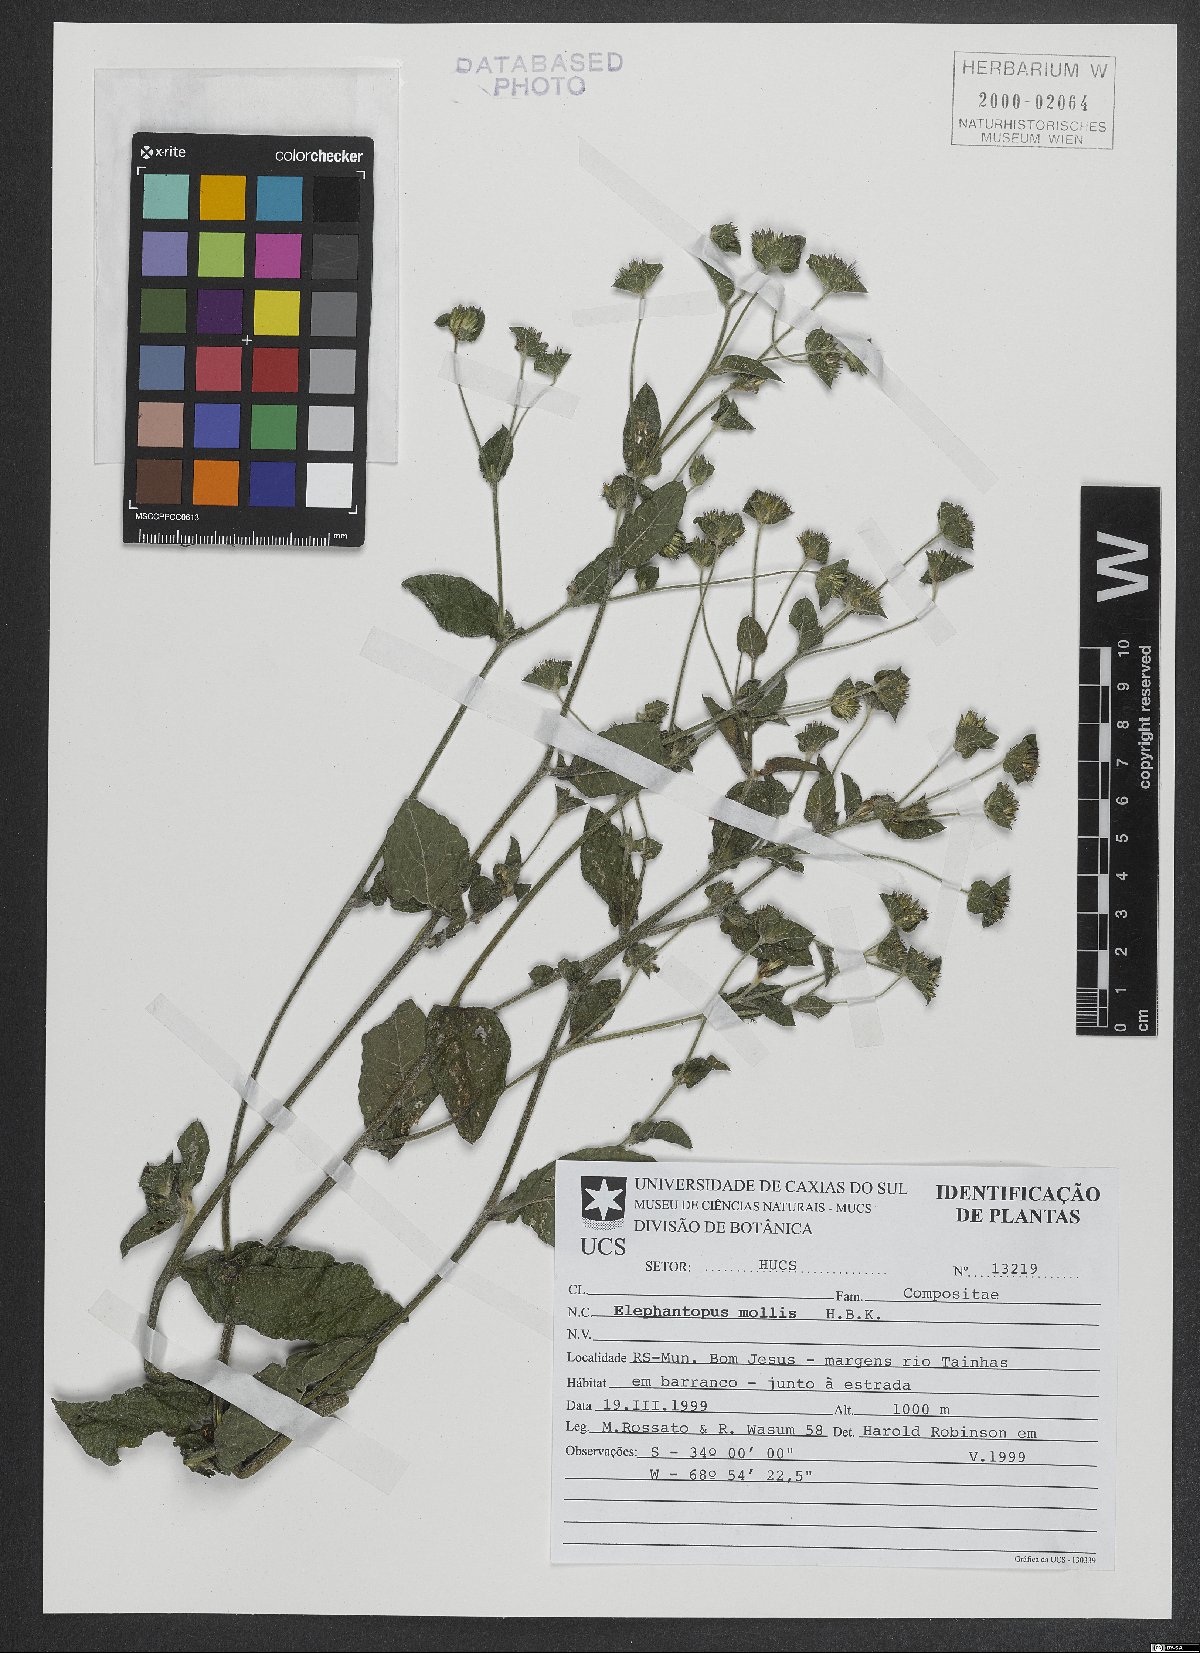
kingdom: Plantae
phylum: Tracheophyta
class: Magnoliopsida
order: Asterales
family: Asteraceae
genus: Elephantopus
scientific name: Elephantopus mollis
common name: Soft elephantsfoot
